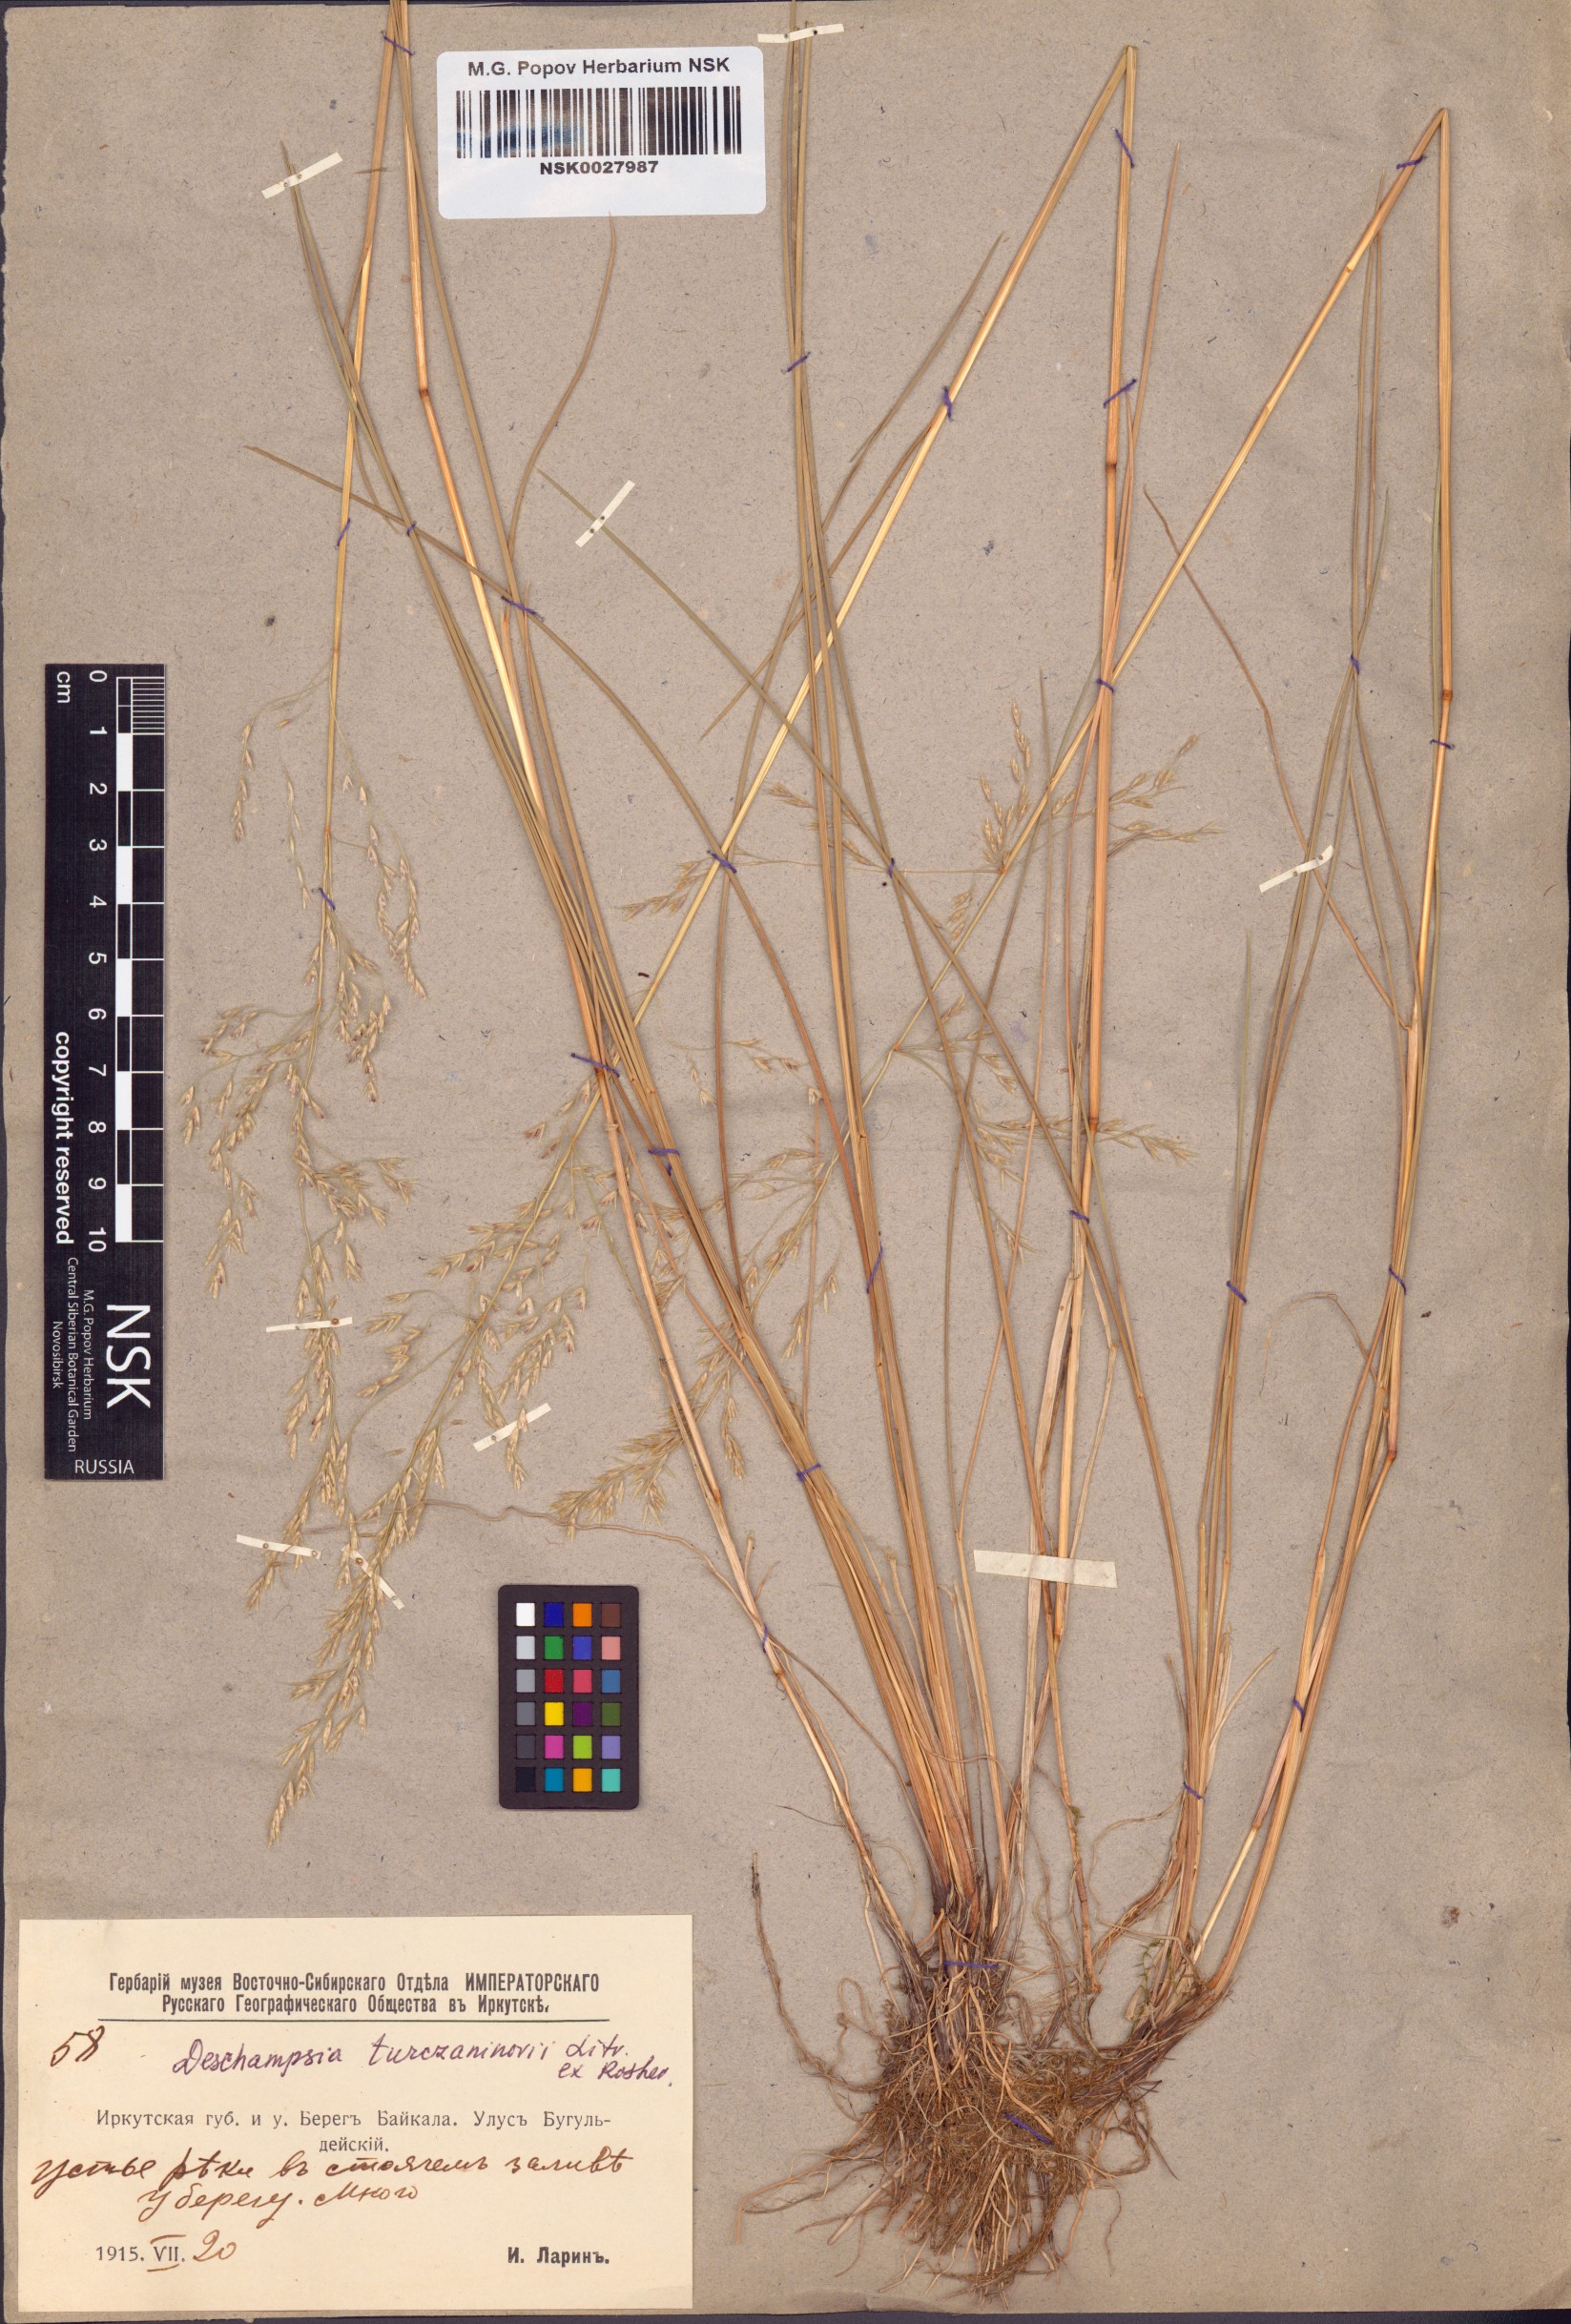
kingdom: Plantae
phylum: Tracheophyta
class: Liliopsida
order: Poales
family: Poaceae
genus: Deschampsia
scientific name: Deschampsia cespitosa
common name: Tufted hair-grass
